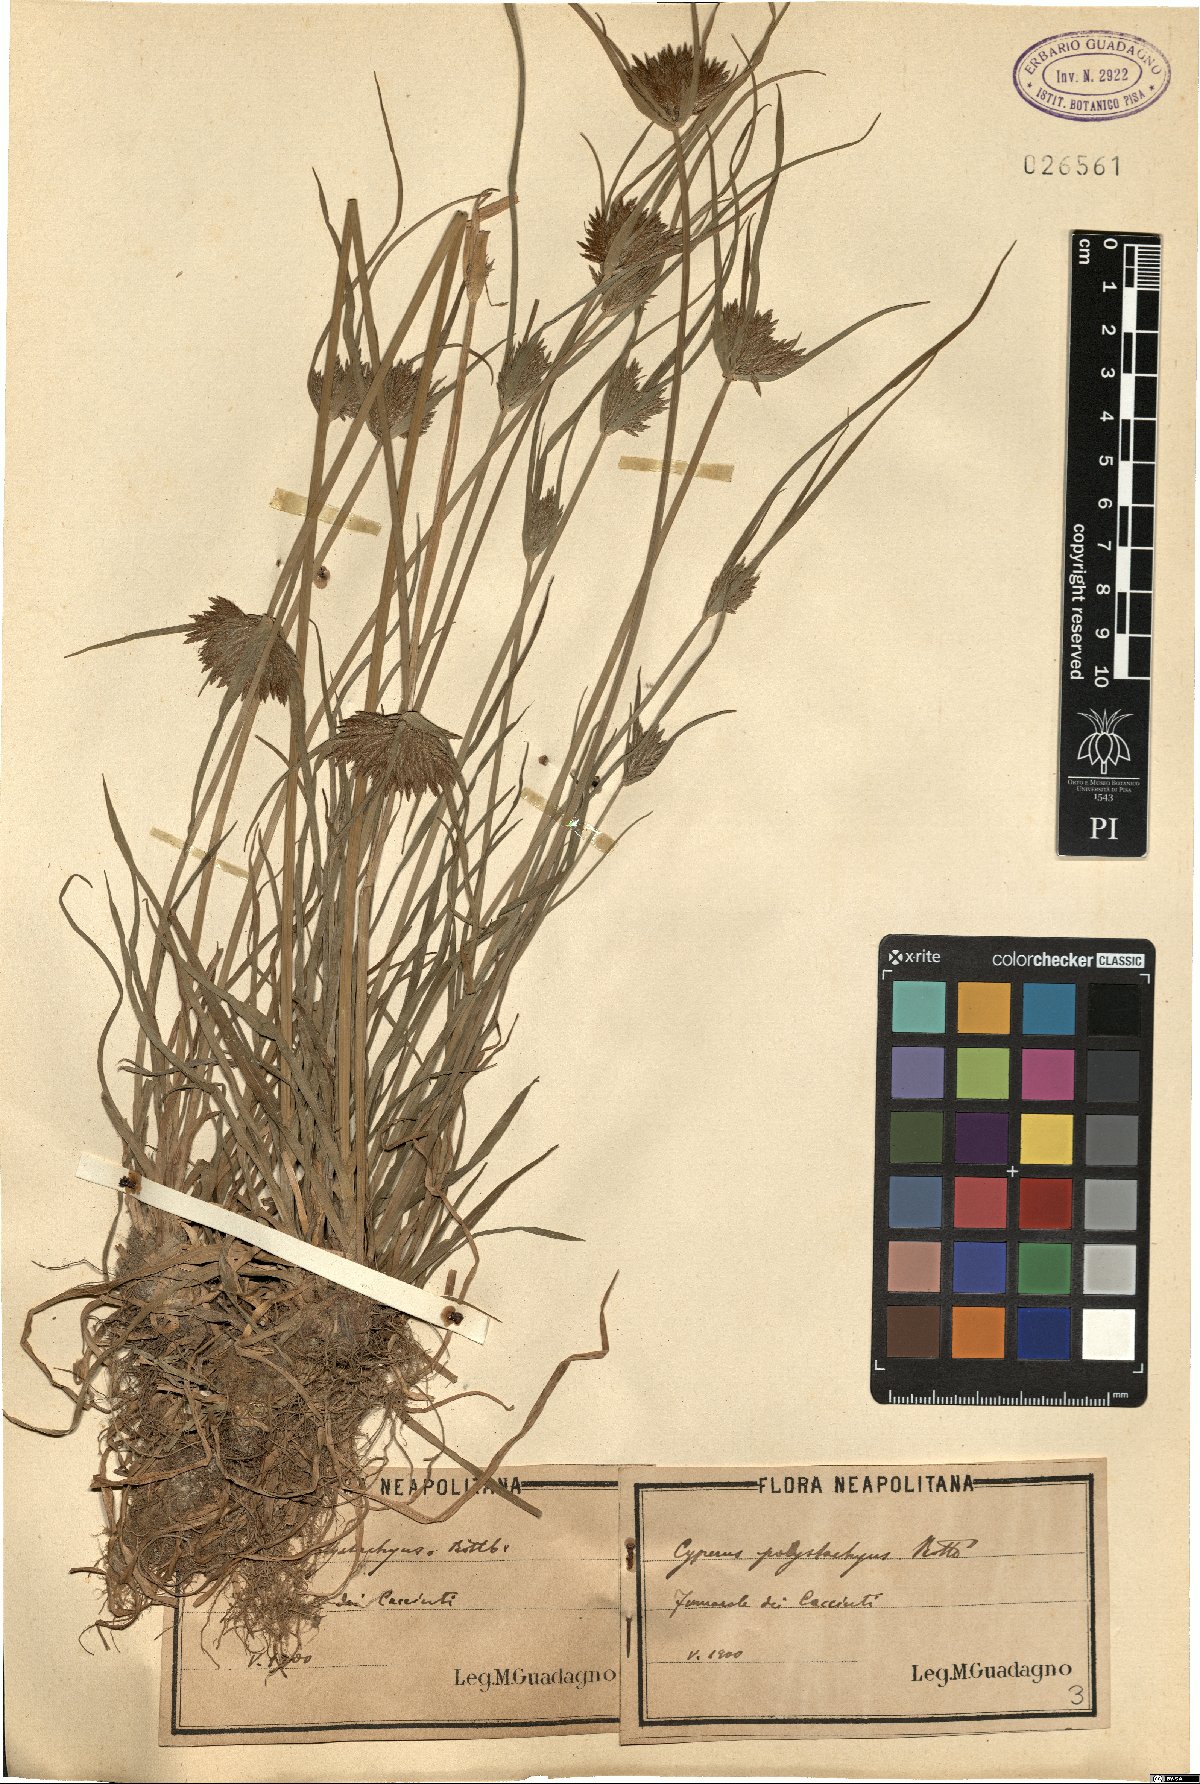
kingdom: Plantae
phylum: Tracheophyta
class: Liliopsida
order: Poales
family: Cyperaceae
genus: Cyperus
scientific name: Cyperus polystachyos
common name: Bunchy flat sedge
